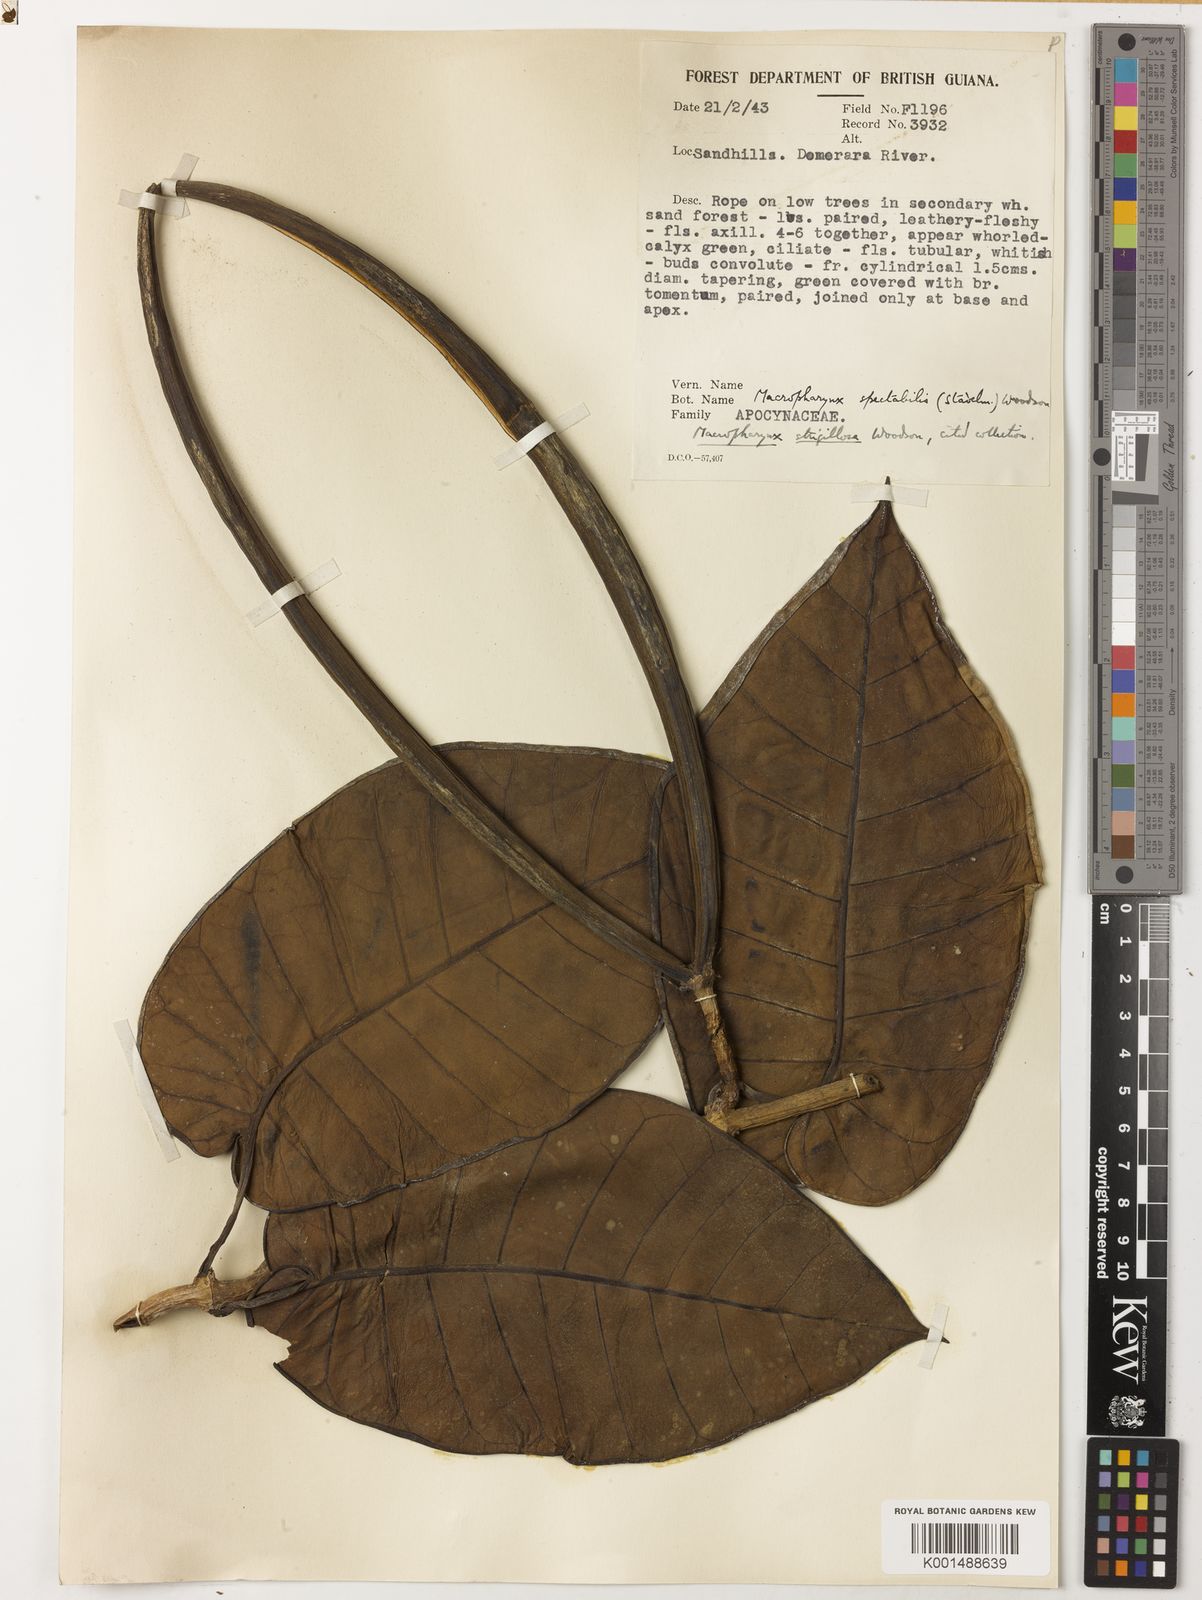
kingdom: Plantae
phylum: Tracheophyta
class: Magnoliopsida
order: Gentianales
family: Apocynaceae
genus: Macropharynx
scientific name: Macropharynx spectabilis
